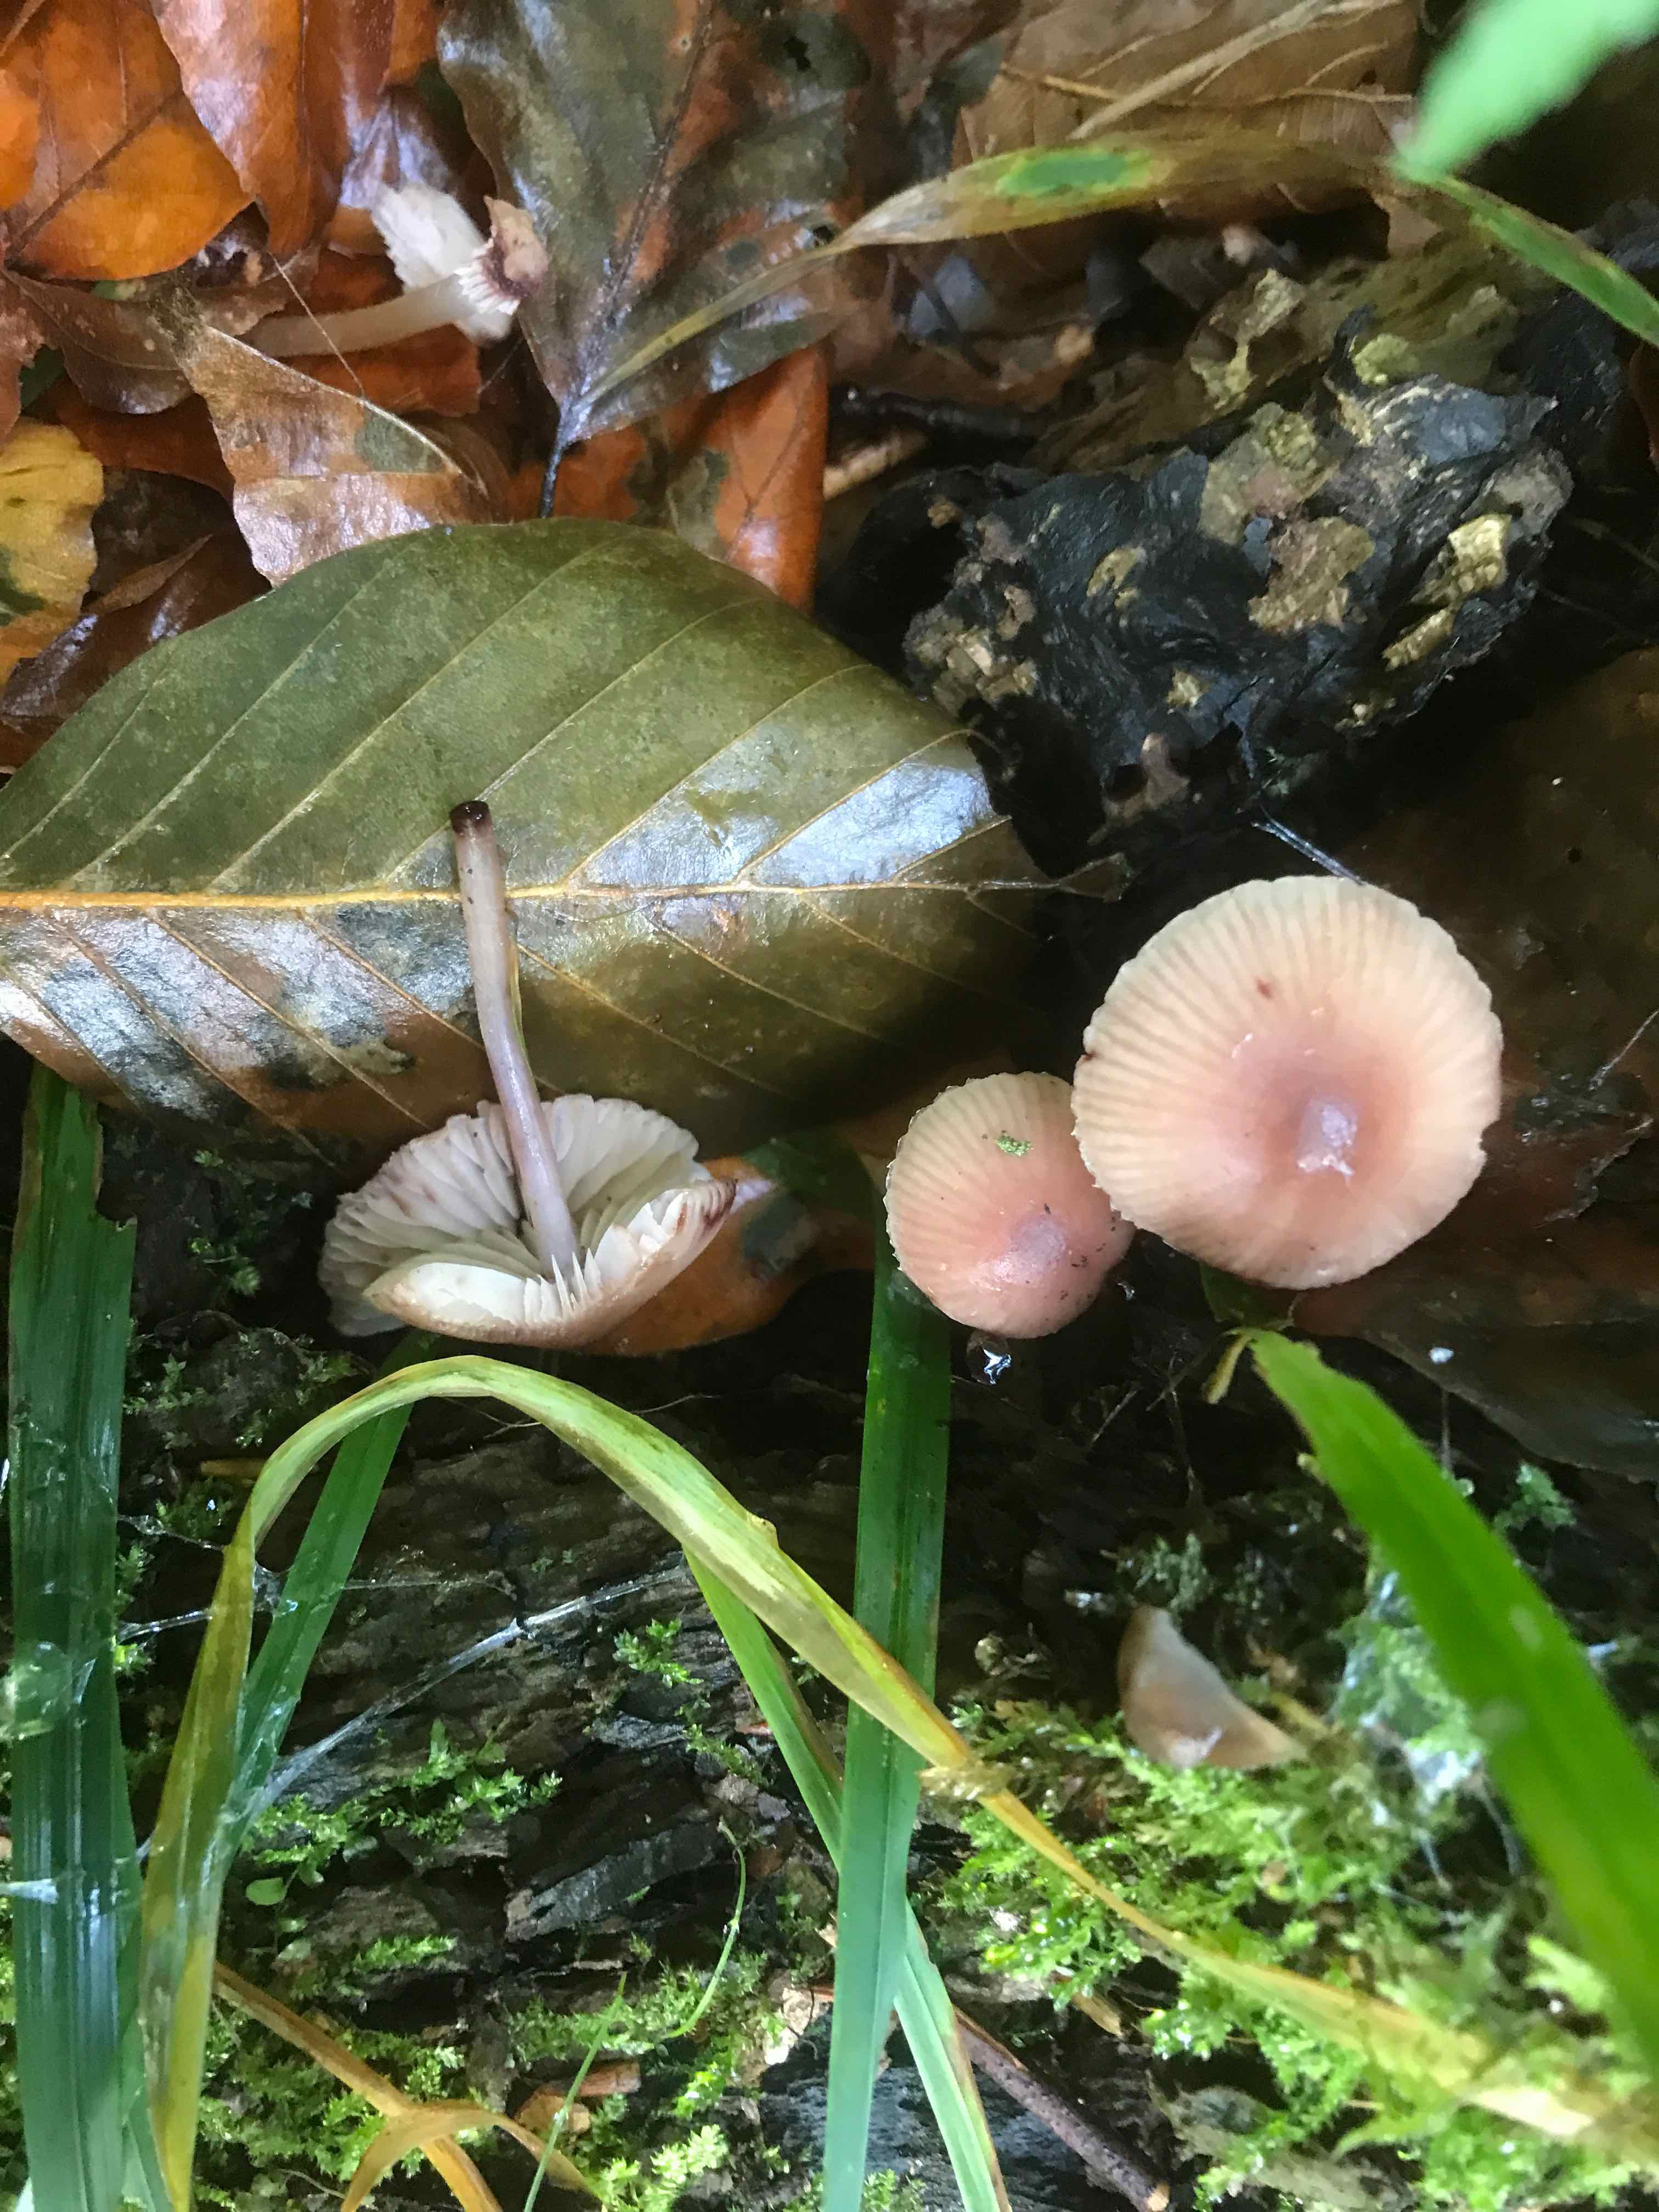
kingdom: Fungi
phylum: Basidiomycota
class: Agaricomycetes
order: Agaricales
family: Mycenaceae
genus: Mycena
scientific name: Mycena haematopus
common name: blødende huesvamp
